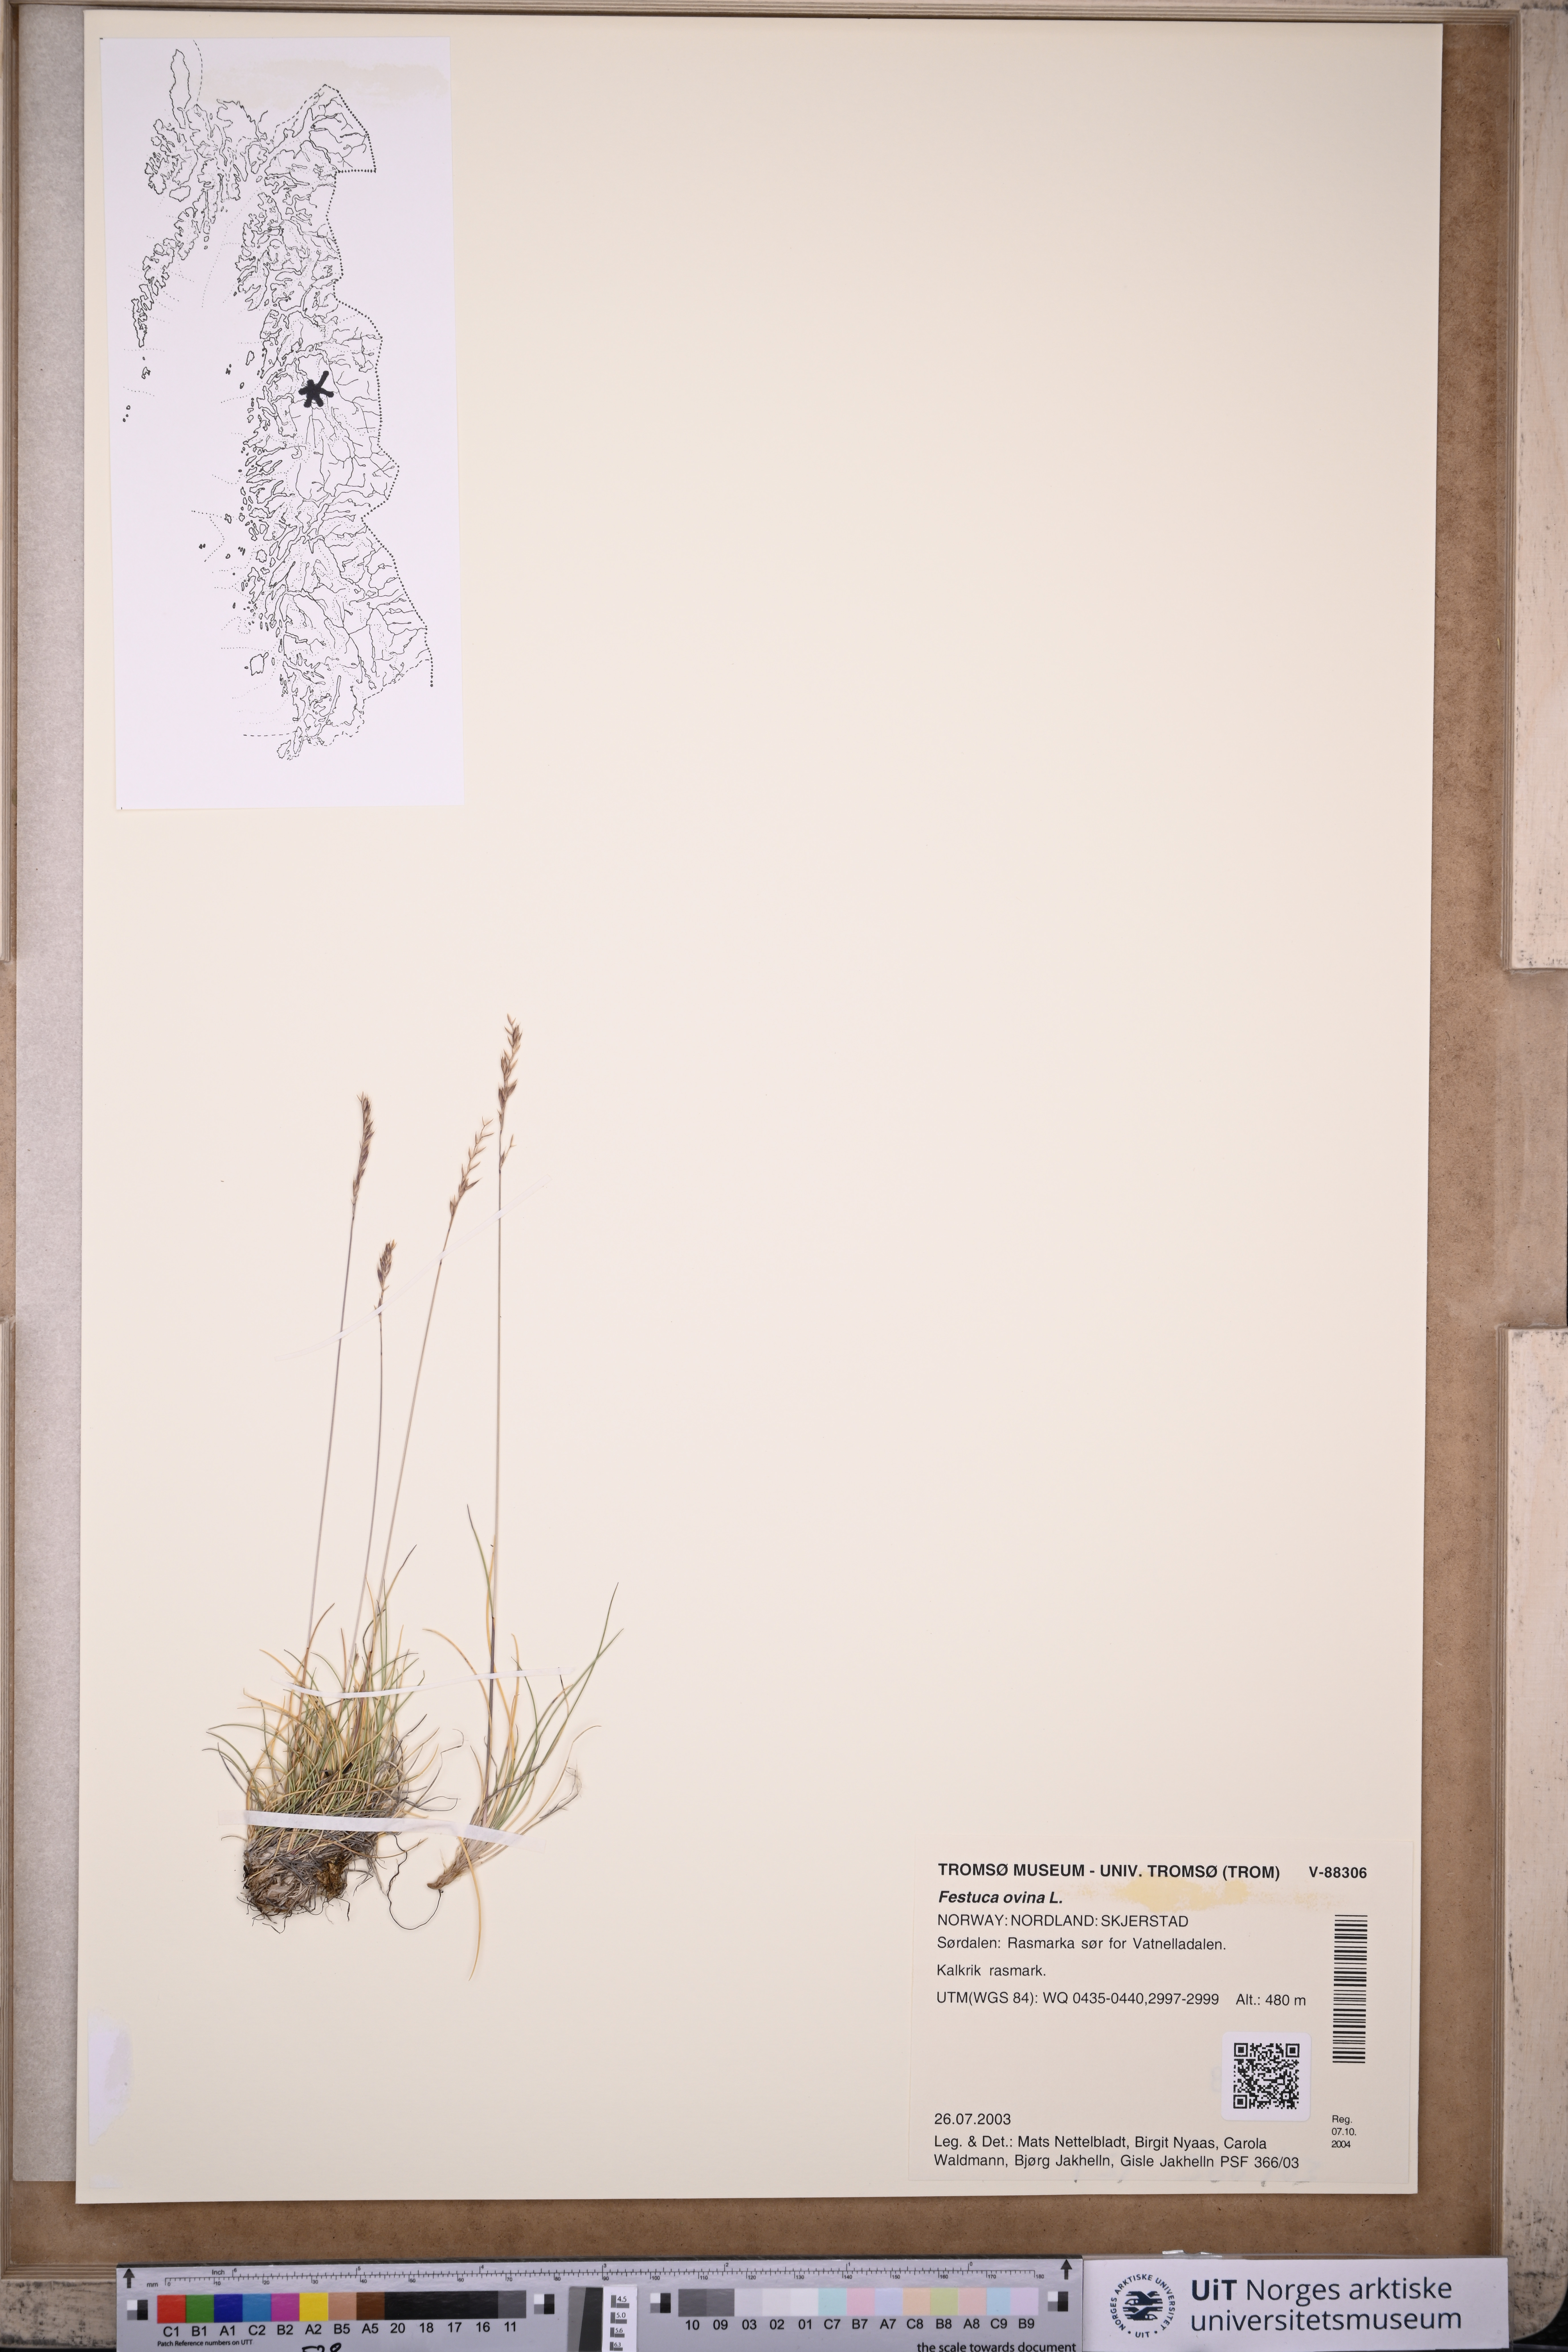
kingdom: Plantae
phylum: Tracheophyta
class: Liliopsida
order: Poales
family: Poaceae
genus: Festuca
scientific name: Festuca ovina
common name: Sheep fescue
